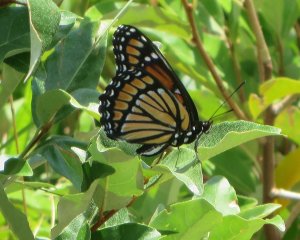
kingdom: Animalia
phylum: Arthropoda
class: Insecta
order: Lepidoptera
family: Nymphalidae
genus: Limenitis
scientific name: Limenitis archippus
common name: Viceroy
